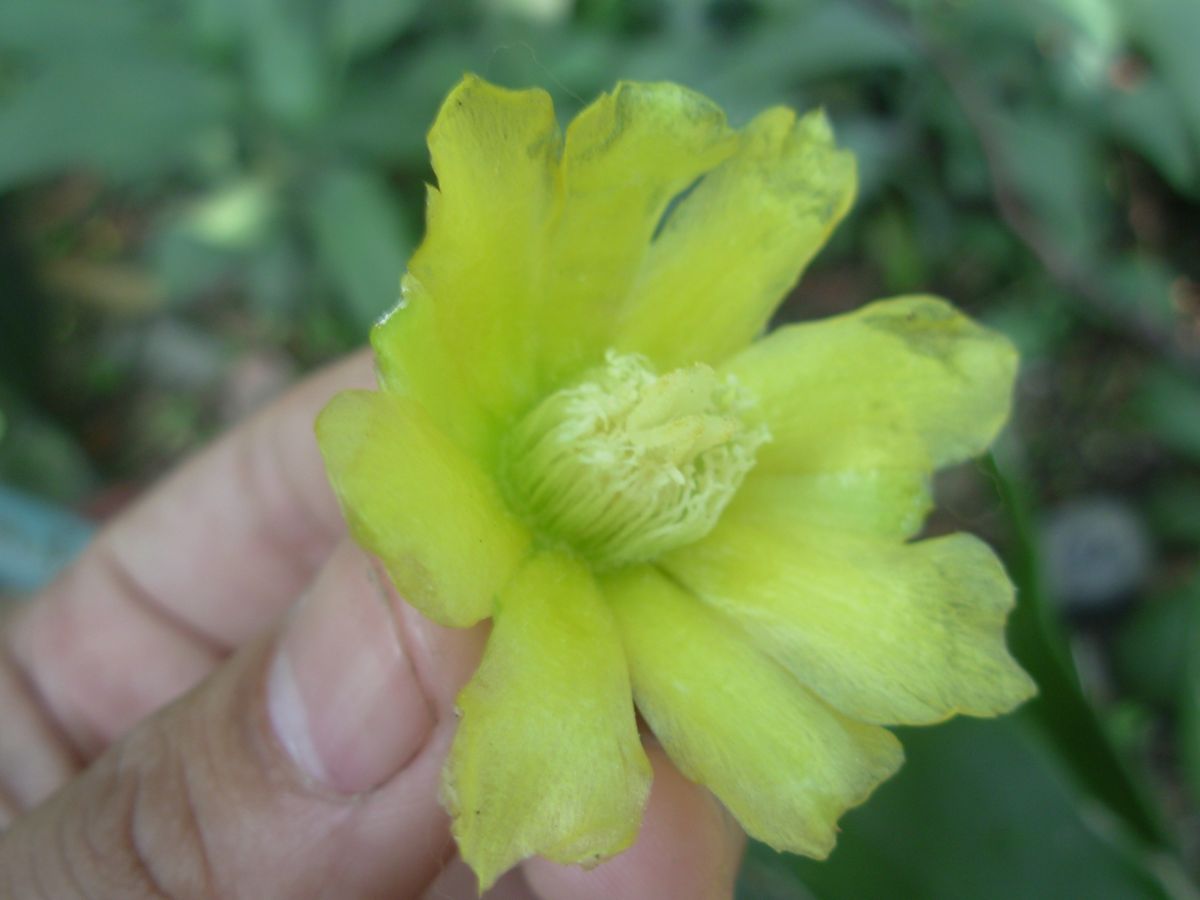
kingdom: Plantae
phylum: Tracheophyta
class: Magnoliopsida
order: Caryophyllales
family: Cactaceae
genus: Brasiliopuntia
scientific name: Brasiliopuntia brasiliensis
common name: Brazilian pricklypear
